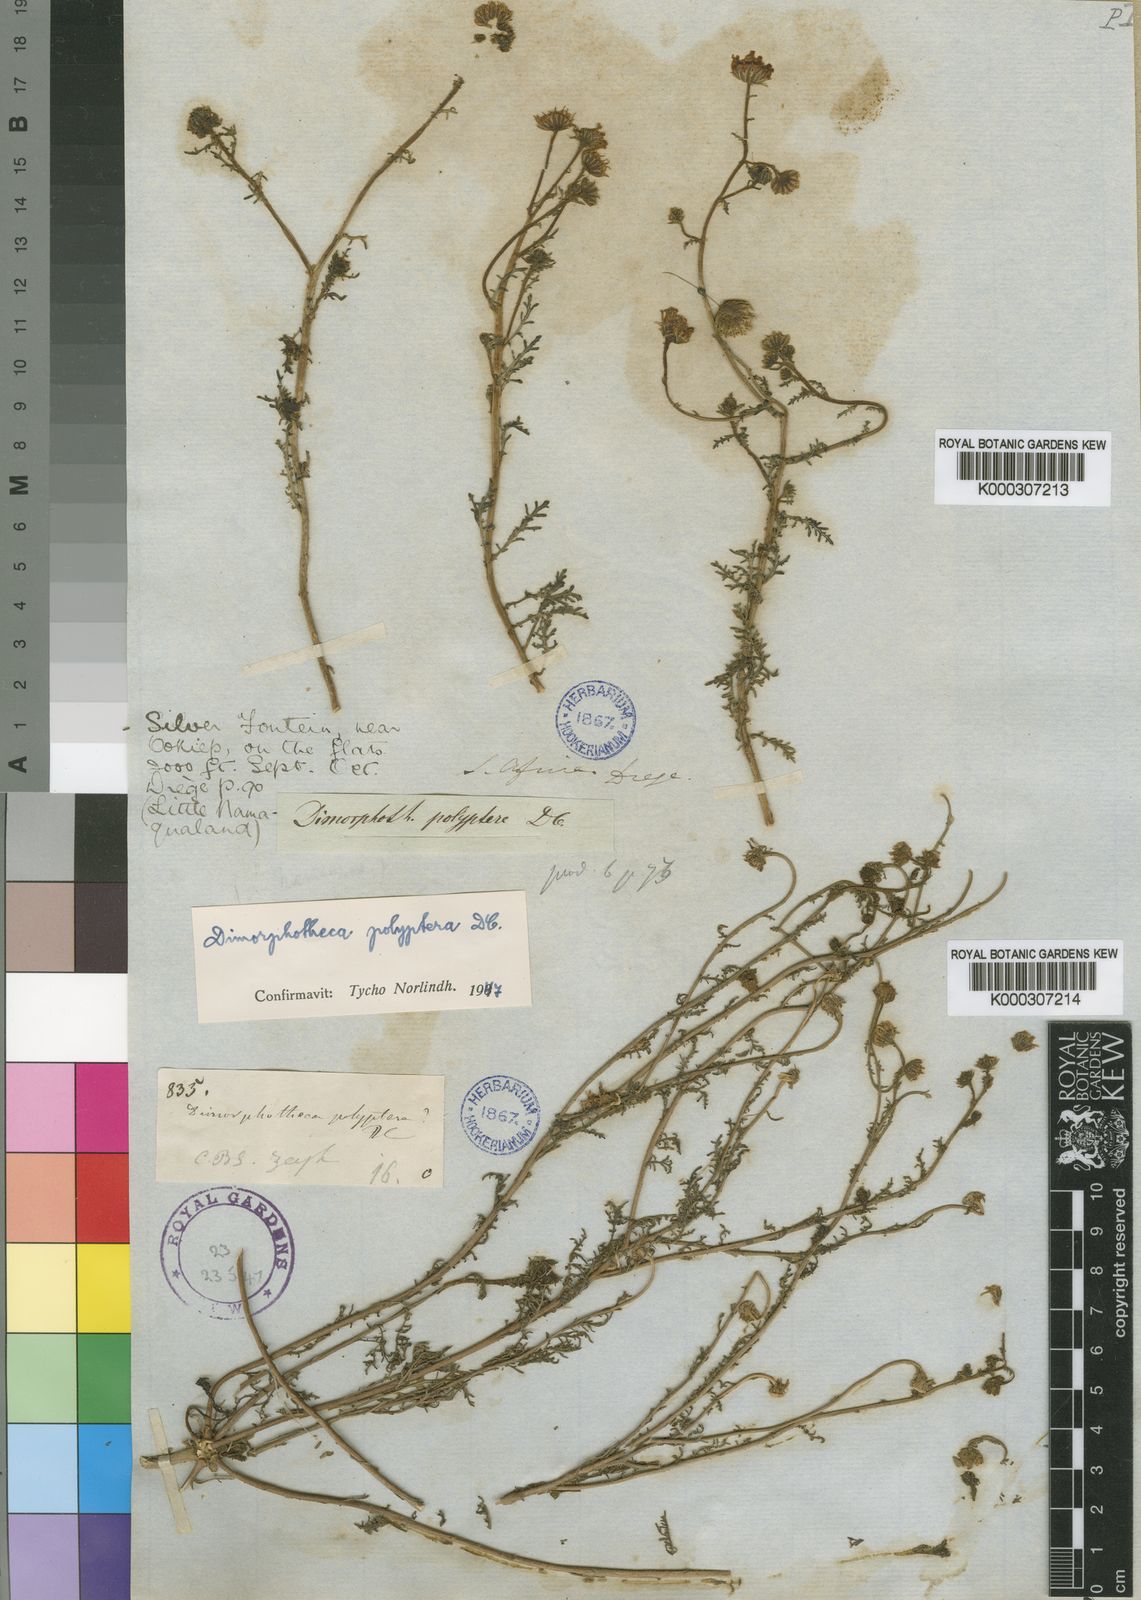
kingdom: Plantae
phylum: Tracheophyta
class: Magnoliopsida
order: Asterales
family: Asteraceae
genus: Osteospermum
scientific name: Osteospermum polypterum
